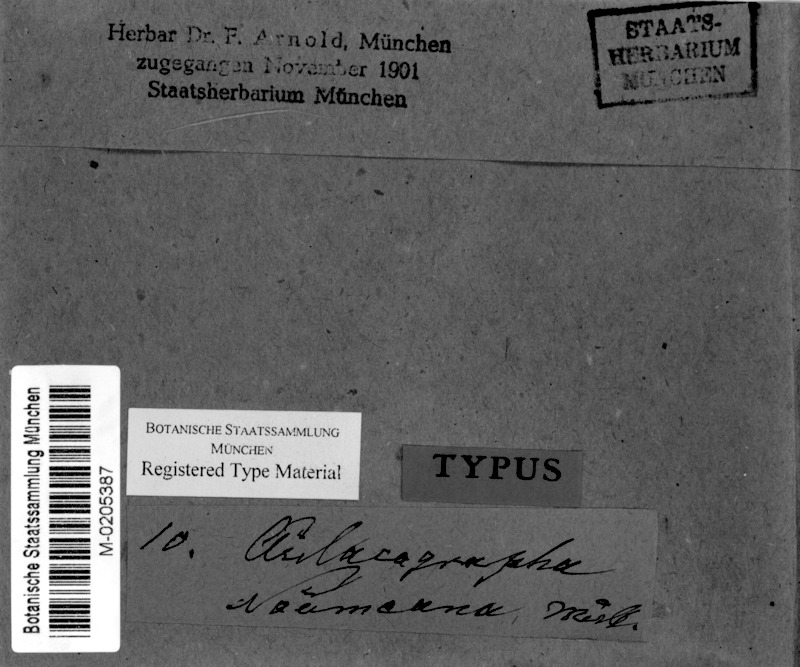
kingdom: Fungi
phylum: Ascomycota
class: Lecanoromycetes
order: Ostropales
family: Graphidaceae
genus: Graphis
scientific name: Graphis noumeana
